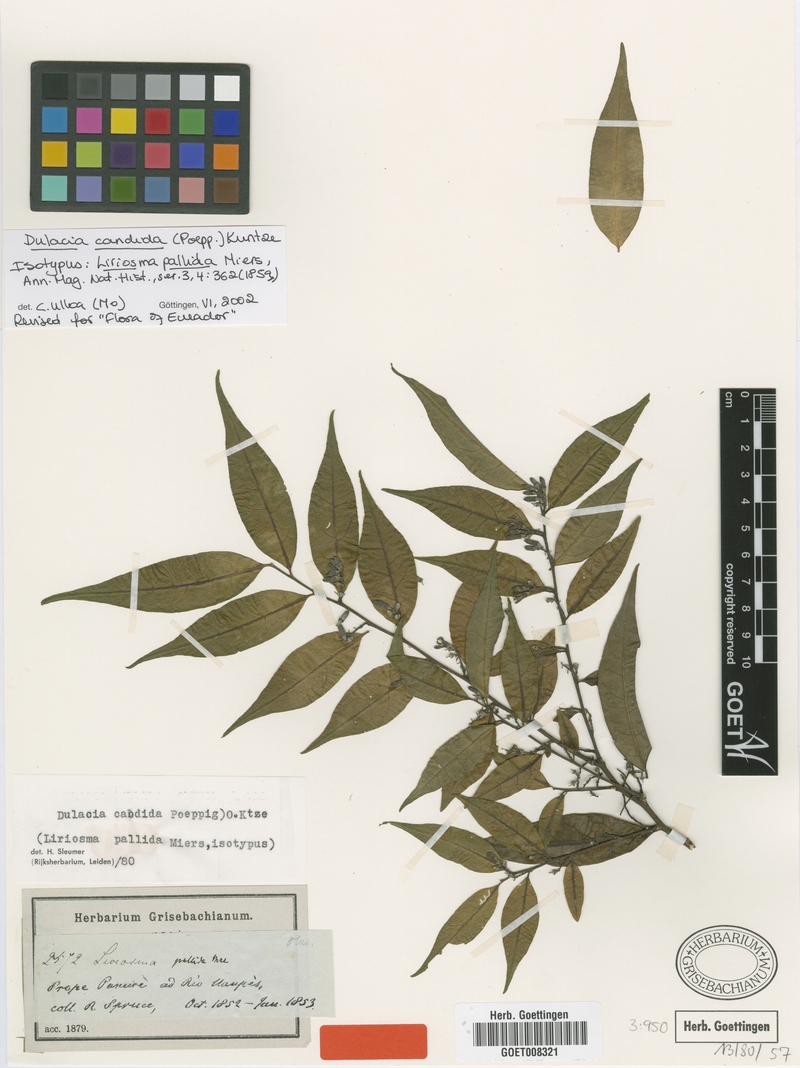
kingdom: Plantae
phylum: Tracheophyta
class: Magnoliopsida
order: Santalales
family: Olacaceae
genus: Dulacia
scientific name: Dulacia candida
